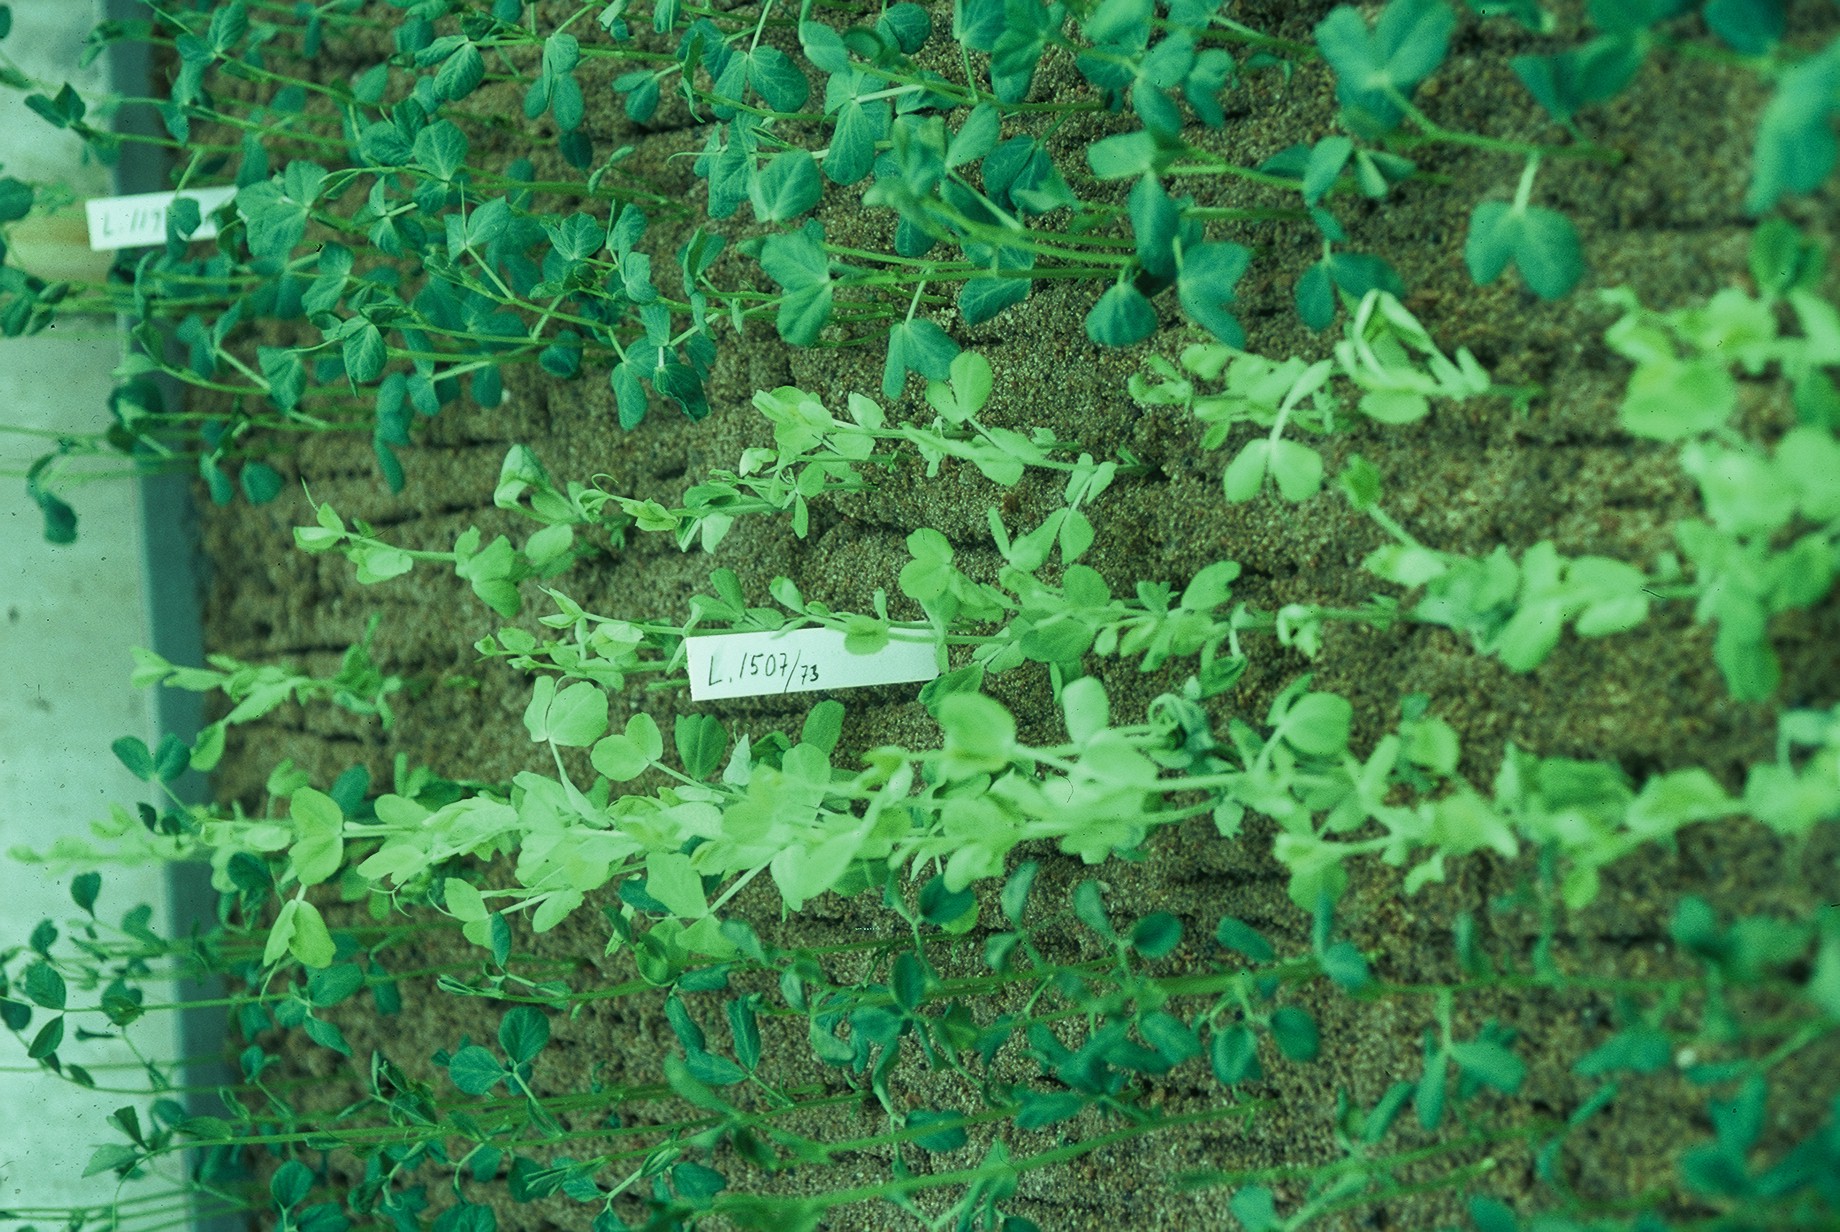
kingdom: Plantae
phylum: Tracheophyta
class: Magnoliopsida
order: Fabales
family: Fabaceae
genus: Lathyrus
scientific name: Lathyrus oleraceus
